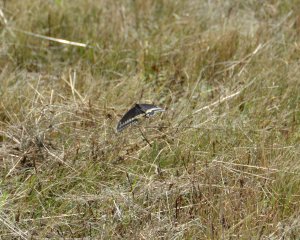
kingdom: Animalia
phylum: Arthropoda
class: Insecta
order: Lepidoptera
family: Papilionidae
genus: Papilio
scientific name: Papilio polyxenes
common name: Black Swallowtail
